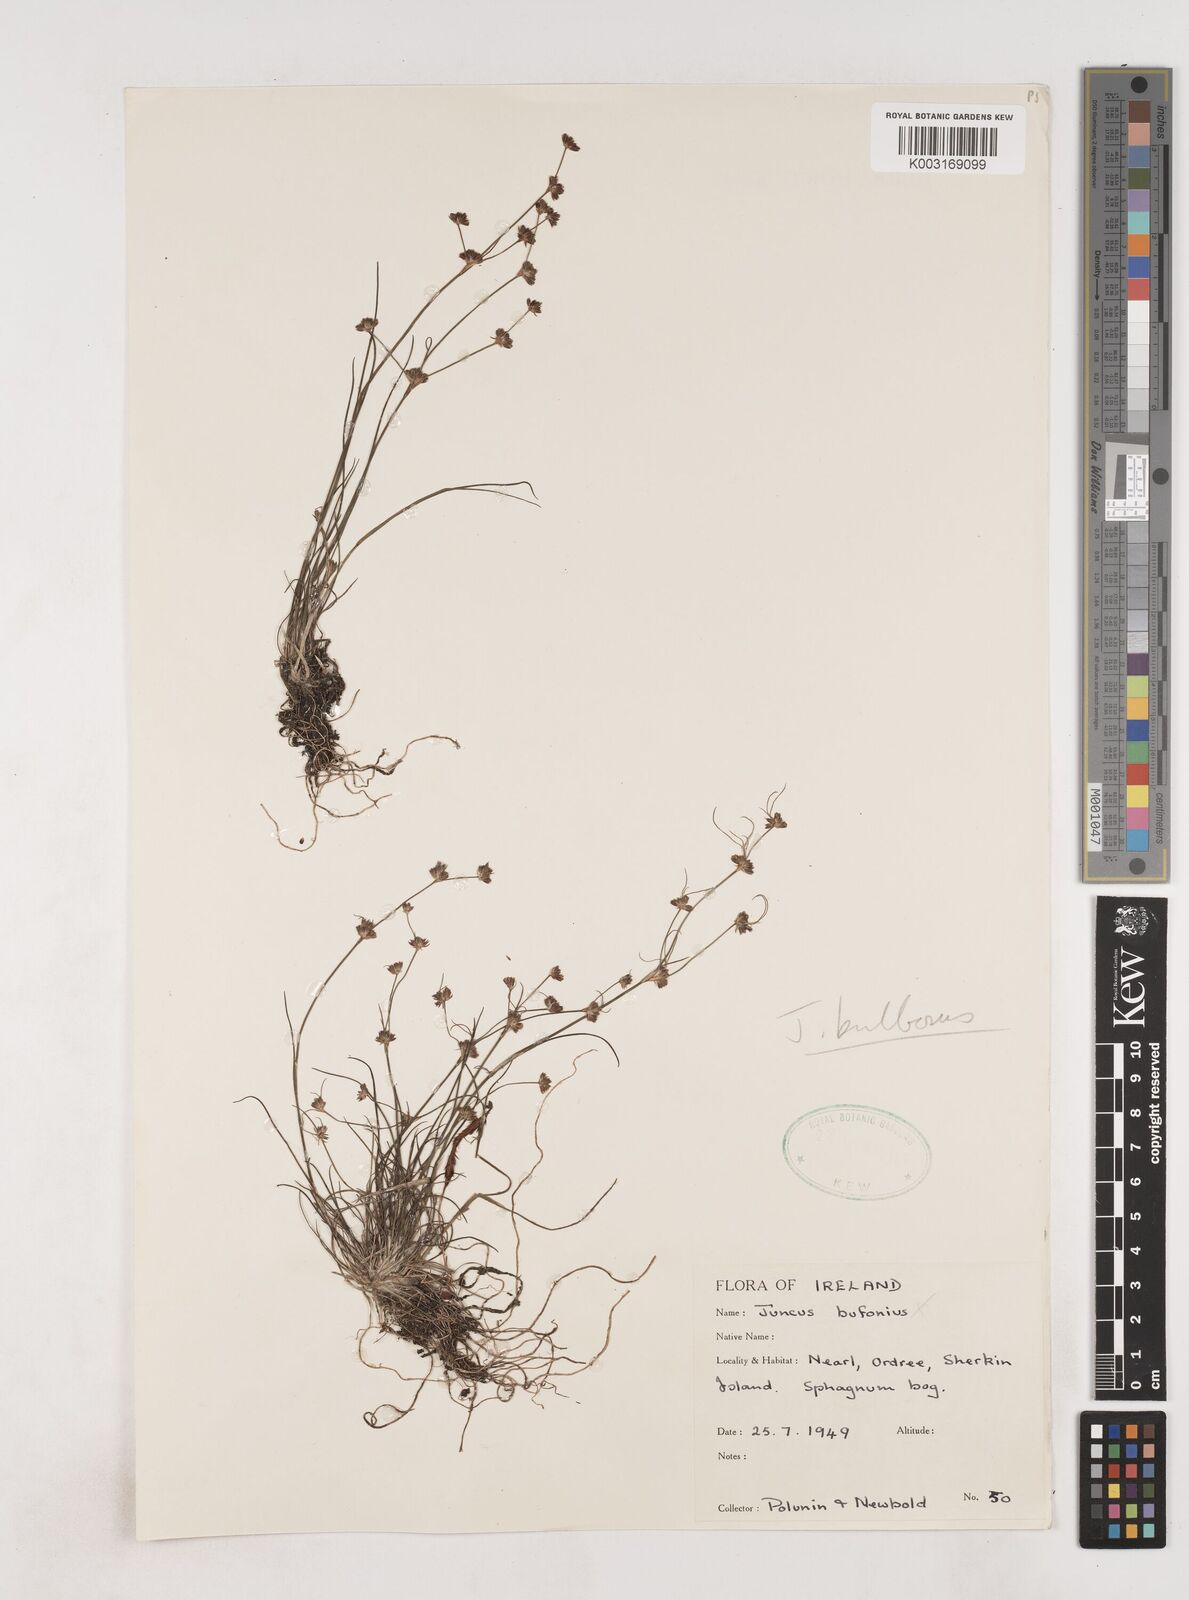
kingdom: Plantae
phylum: Tracheophyta
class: Liliopsida
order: Poales
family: Juncaceae
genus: Juncus
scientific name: Juncus bulbosus
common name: Bulbous rush
